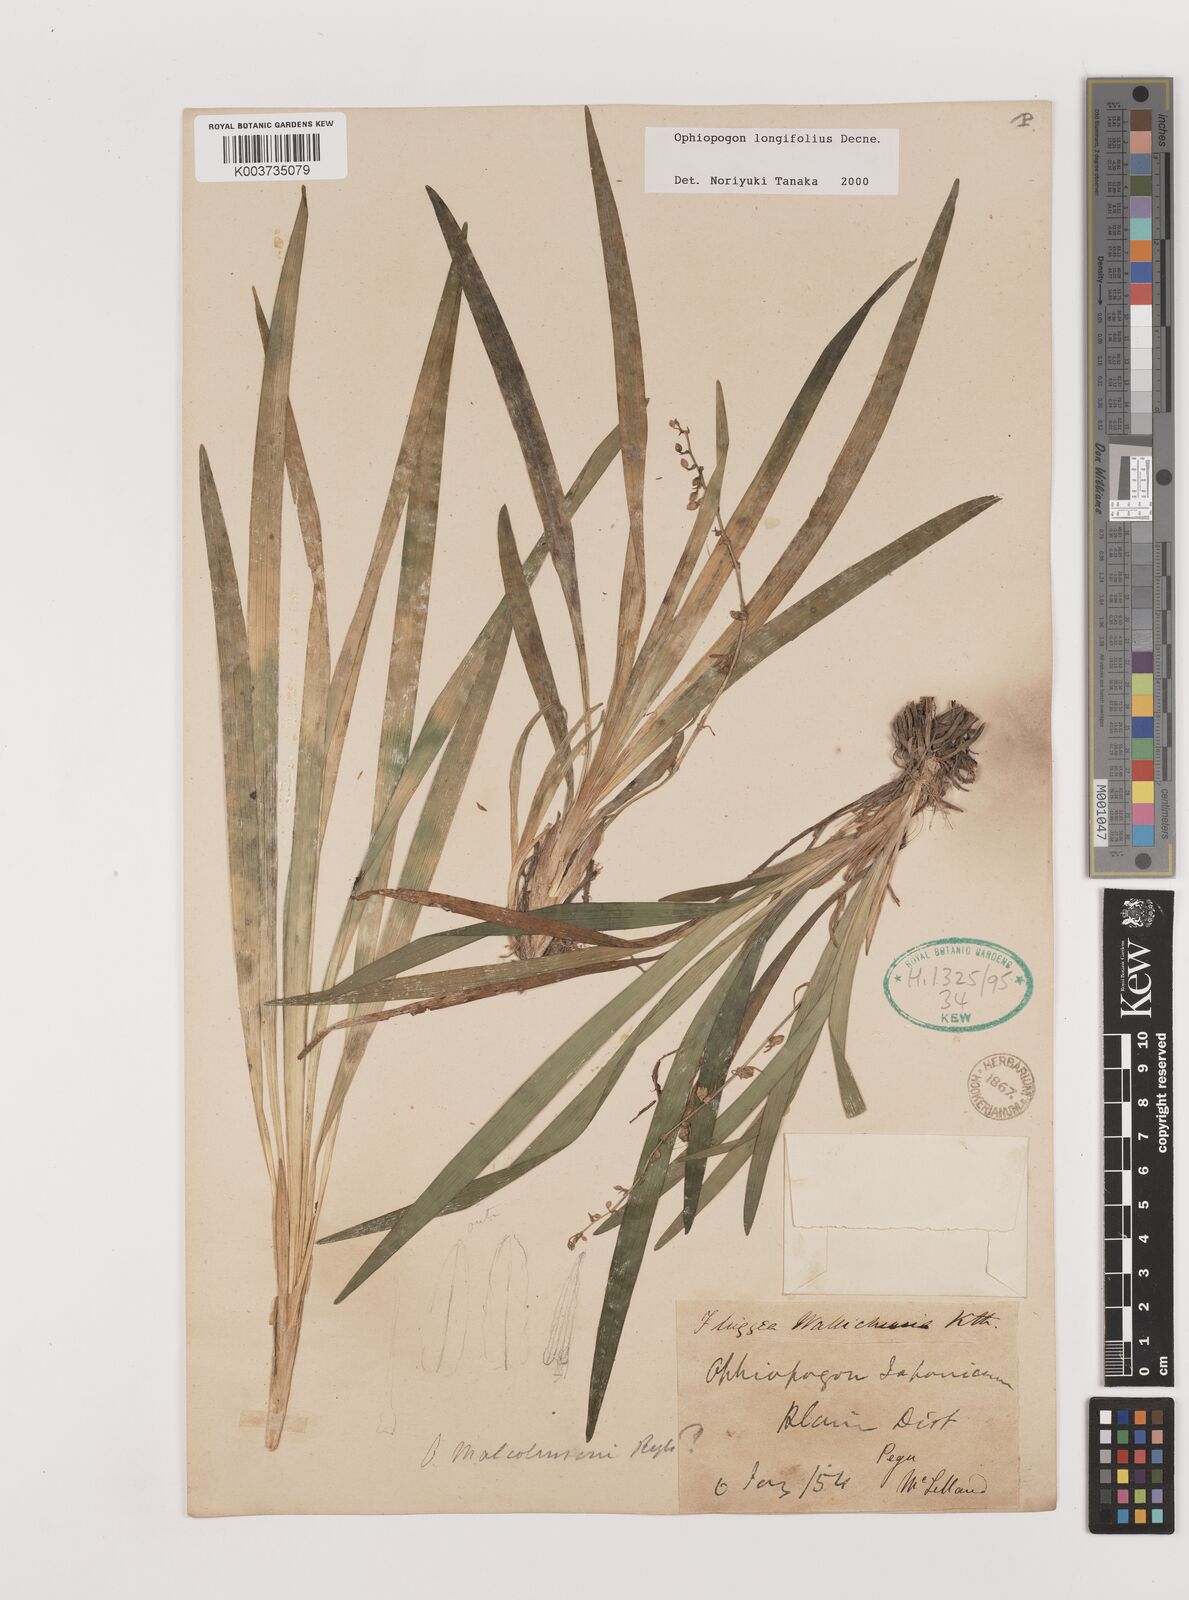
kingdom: Plantae
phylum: Tracheophyta
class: Liliopsida
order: Asparagales
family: Asparagaceae
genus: Ophiopogon
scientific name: Ophiopogon longifolius
